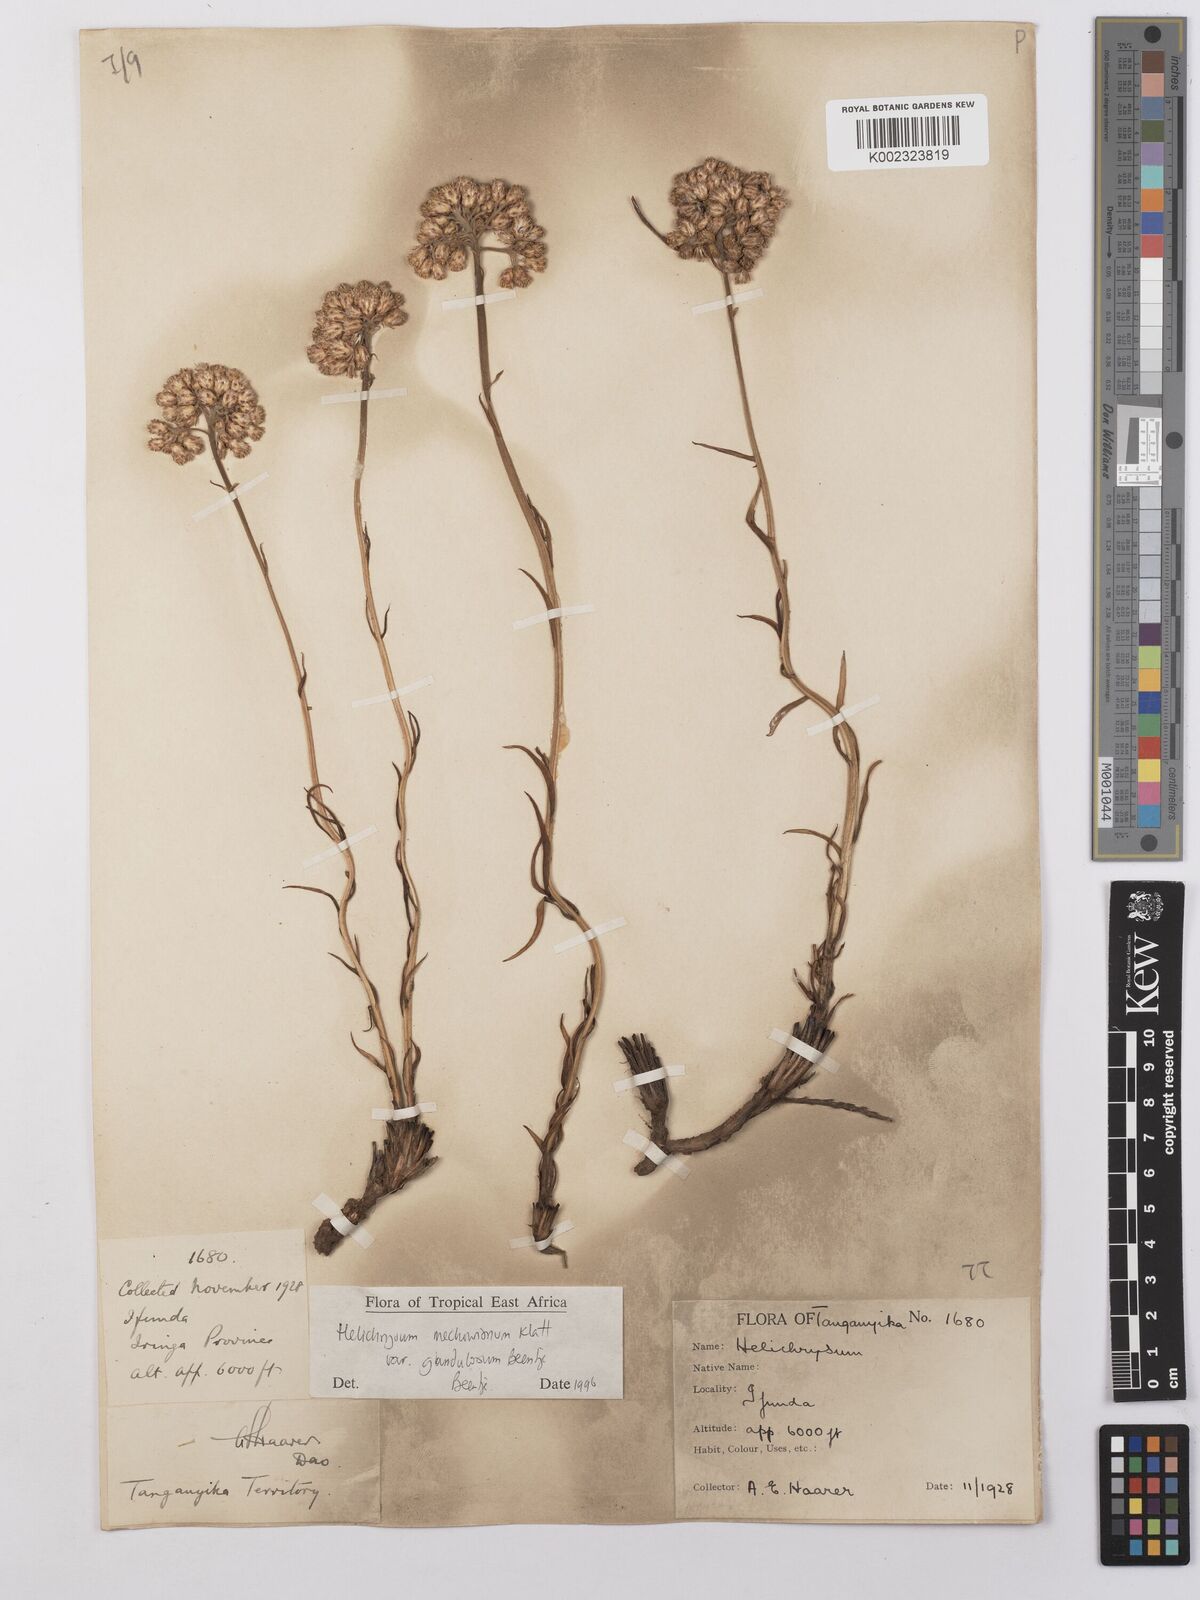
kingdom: Plantae
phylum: Tracheophyta
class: Magnoliopsida
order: Asterales
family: Asteraceae
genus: Helichrysum
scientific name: Helichrysum mechowianum
